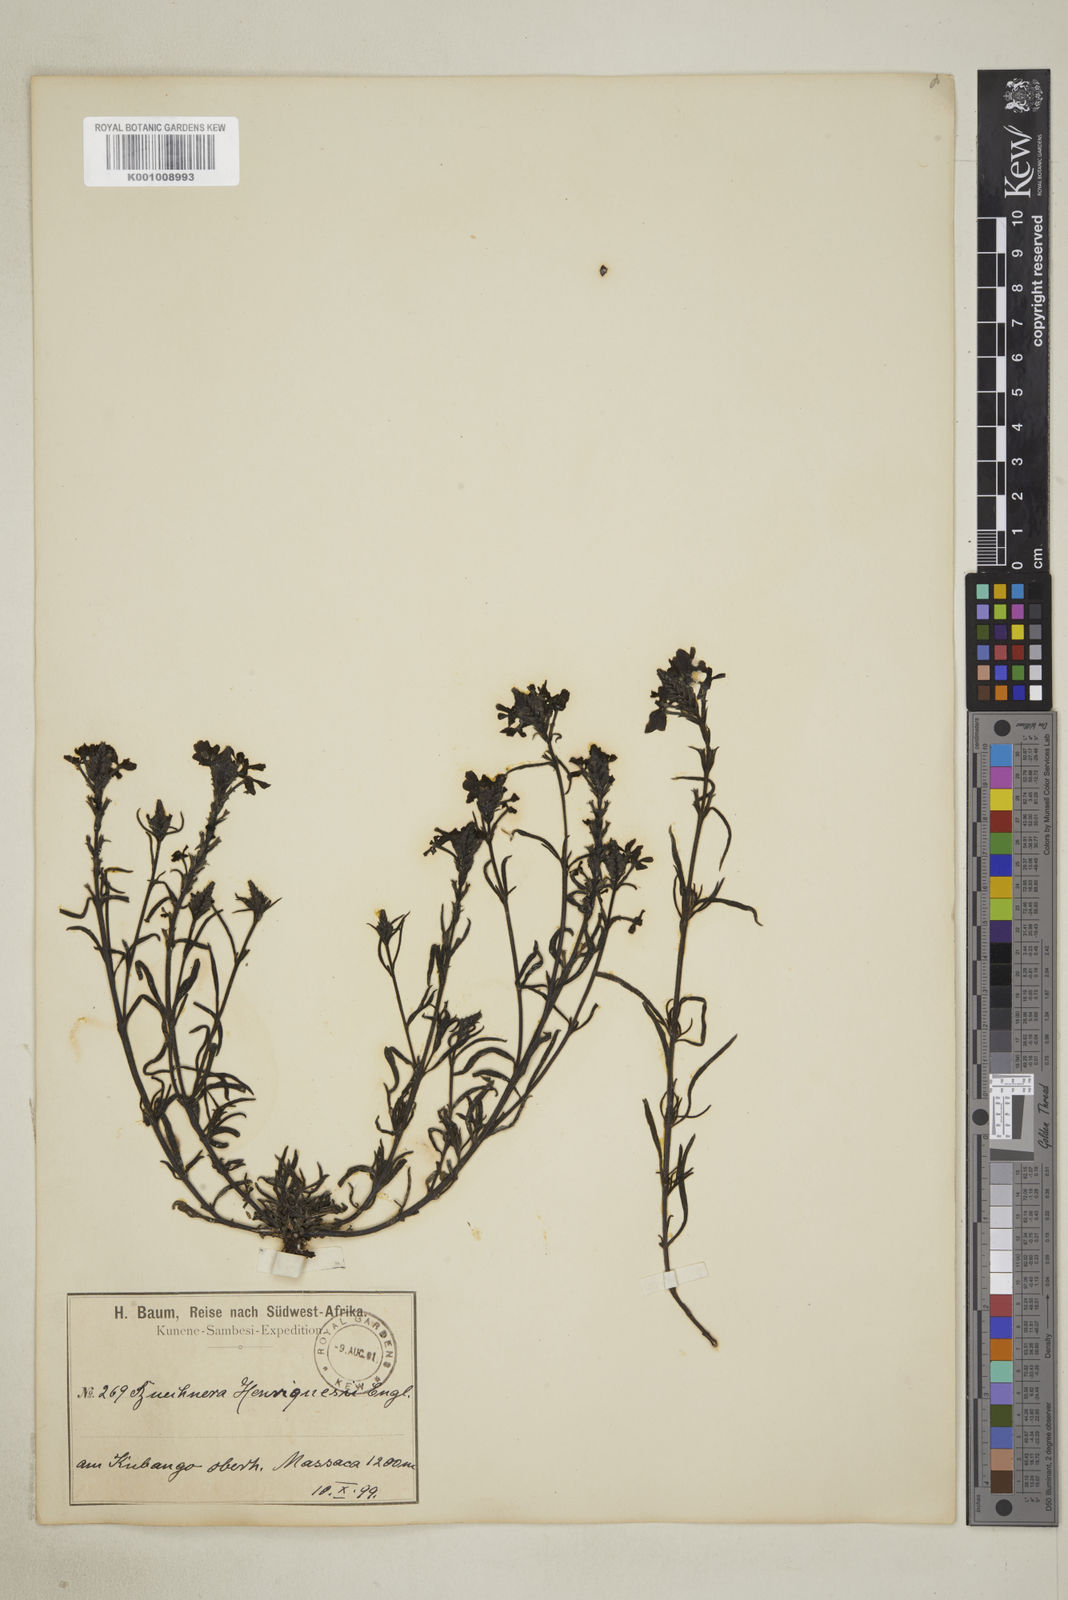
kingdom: Plantae
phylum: Tracheophyta
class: Magnoliopsida
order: Lamiales
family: Orobanchaceae
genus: Buchnera
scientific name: Buchnera henriquesii
